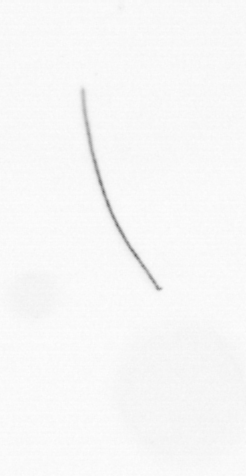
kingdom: Chromista
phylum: Ochrophyta
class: Bacillariophyceae
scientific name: Bacillariophyceae
